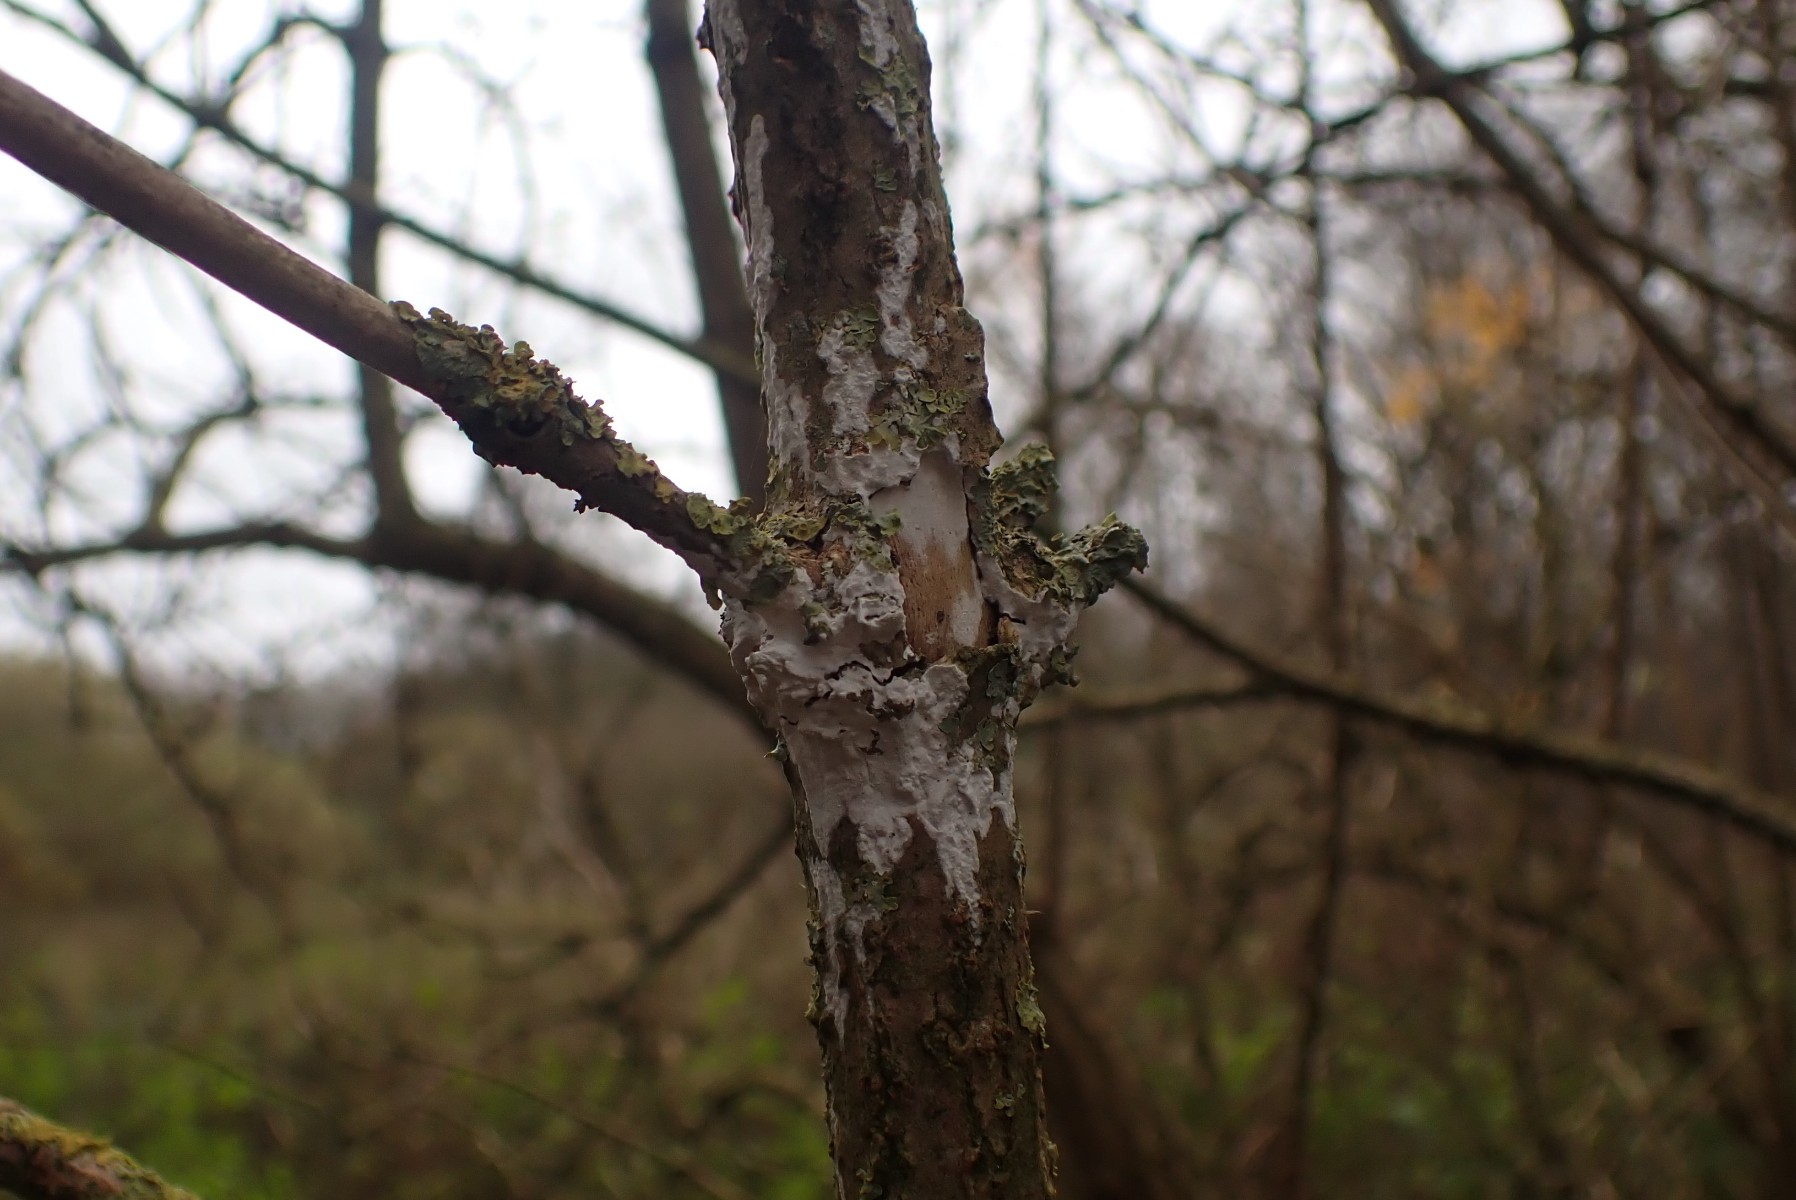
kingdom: Fungi
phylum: Basidiomycota
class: Agaricomycetes
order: Corticiales
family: Corticiaceae
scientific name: Corticiaceae
